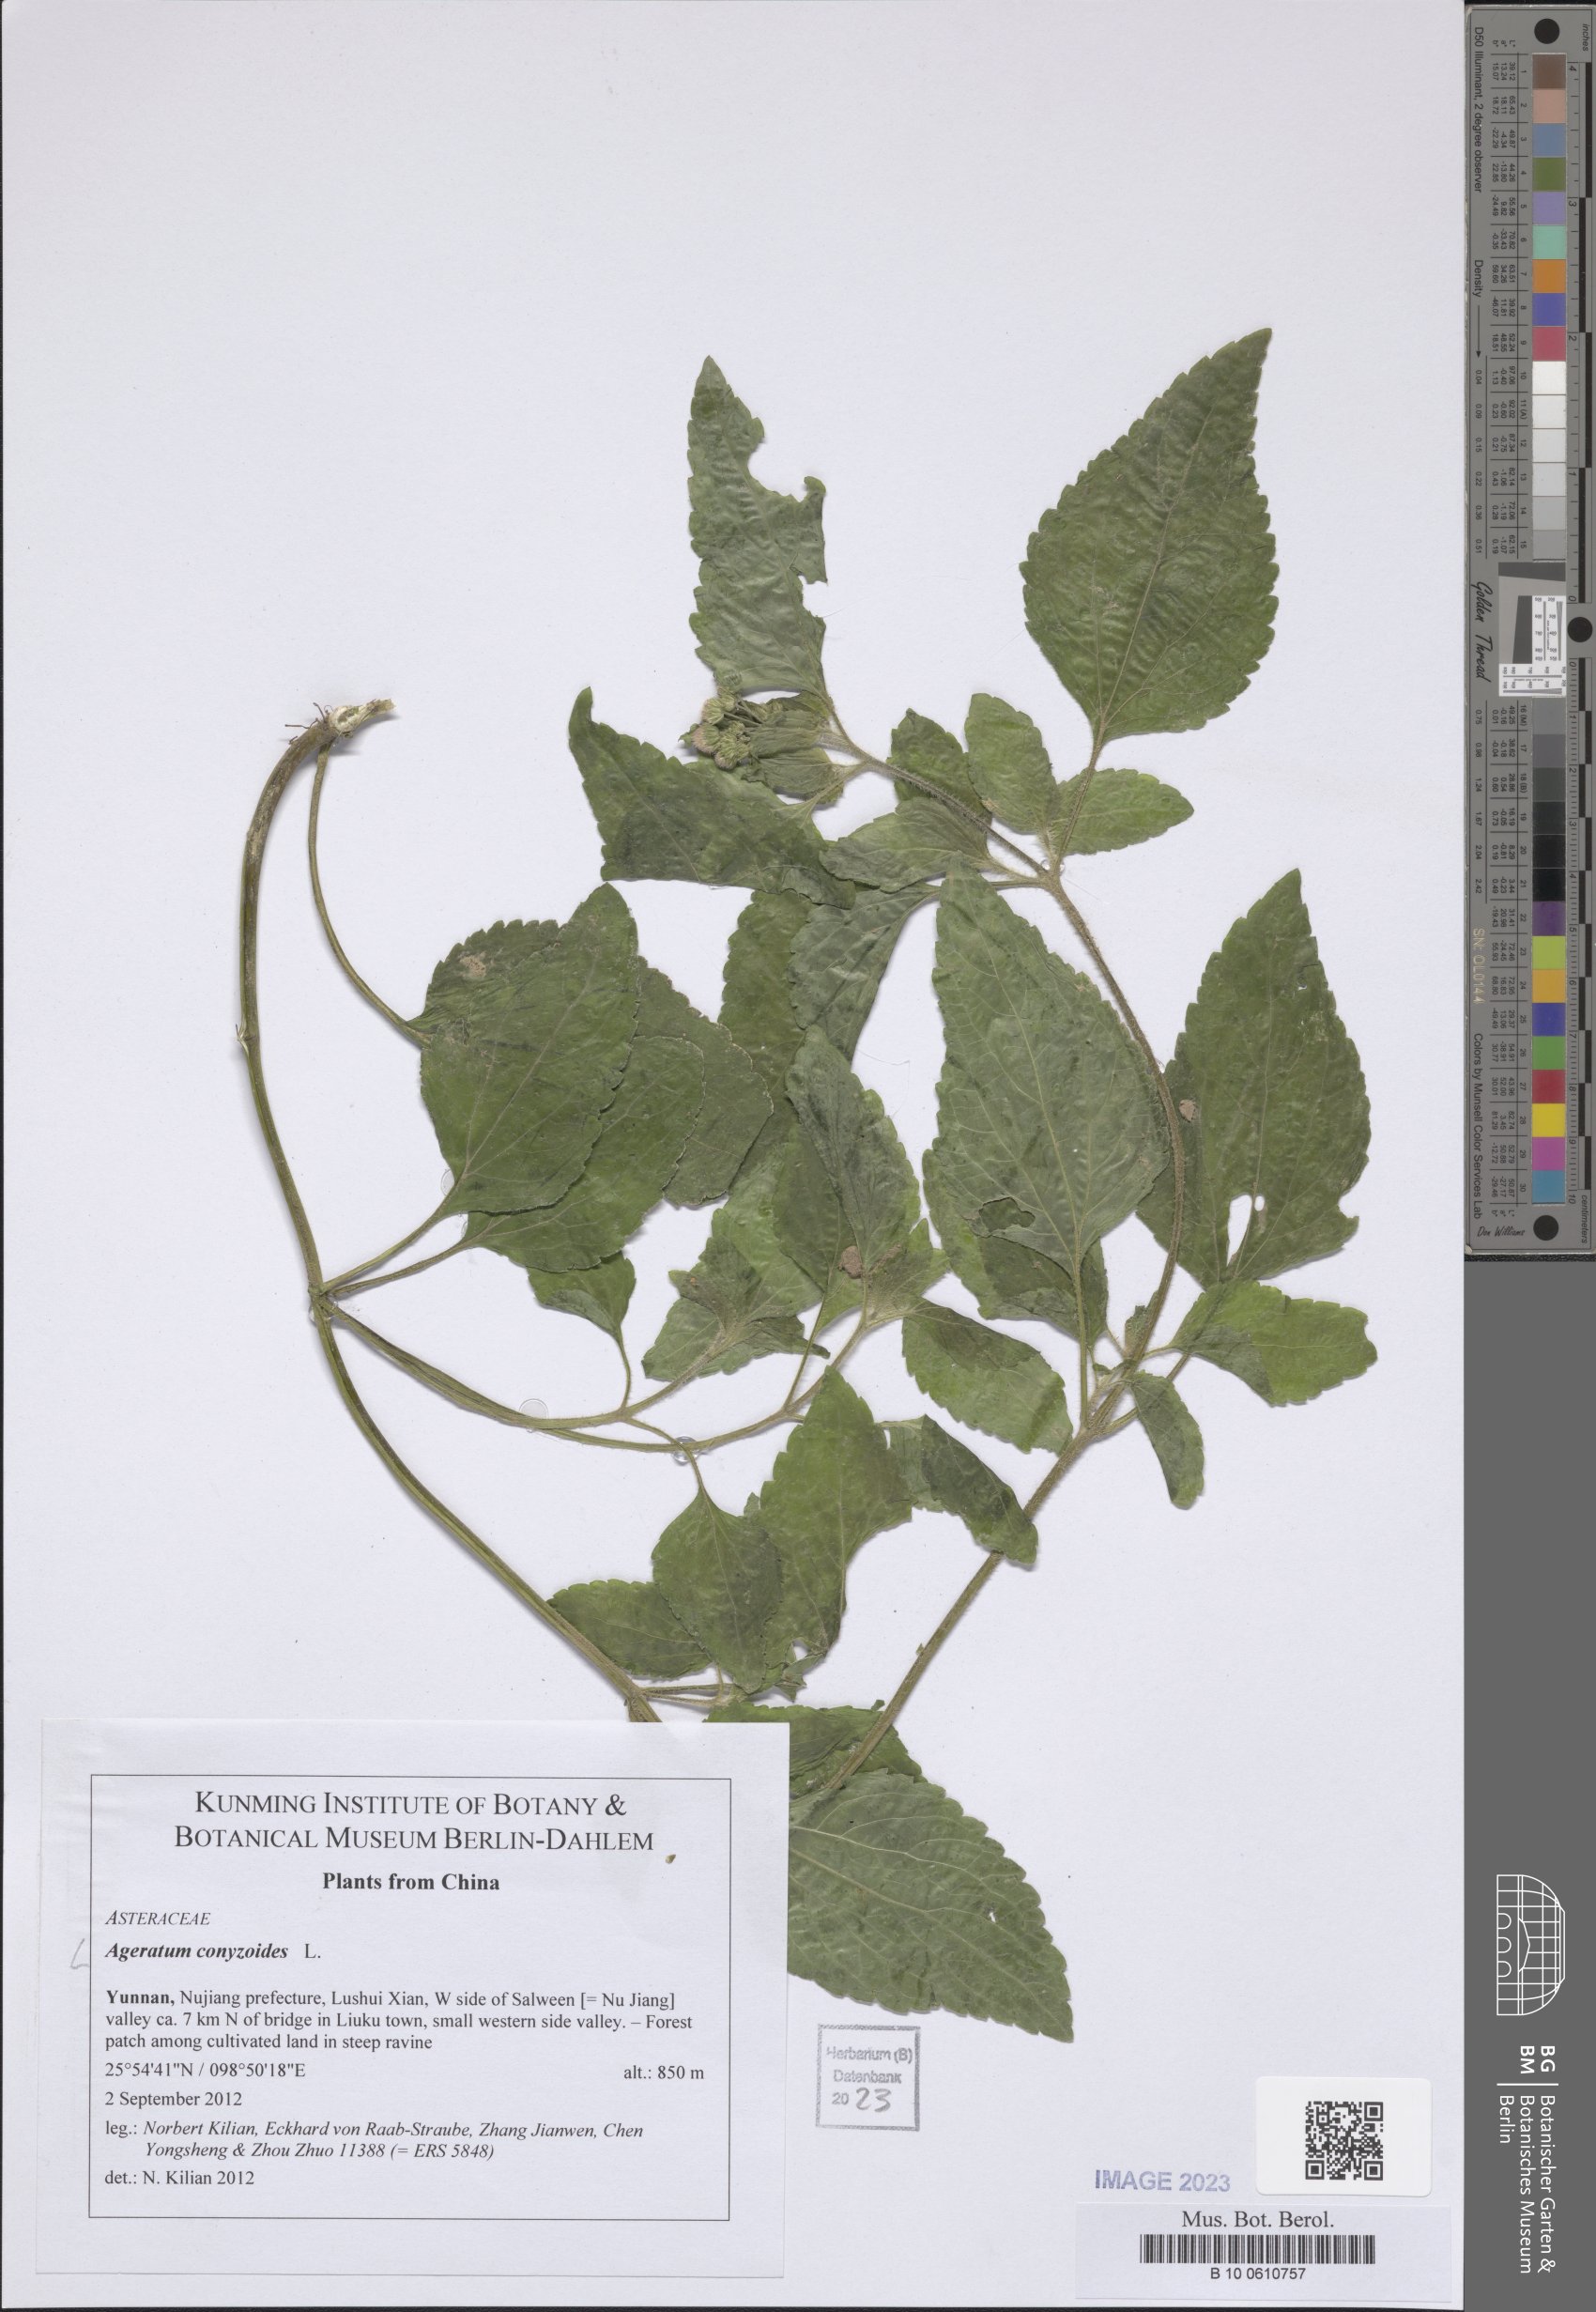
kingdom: Plantae
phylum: Tracheophyta
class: Magnoliopsida
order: Asterales
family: Asteraceae
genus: Ageratum
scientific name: Ageratum conyzoides
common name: Tropical whiteweed
